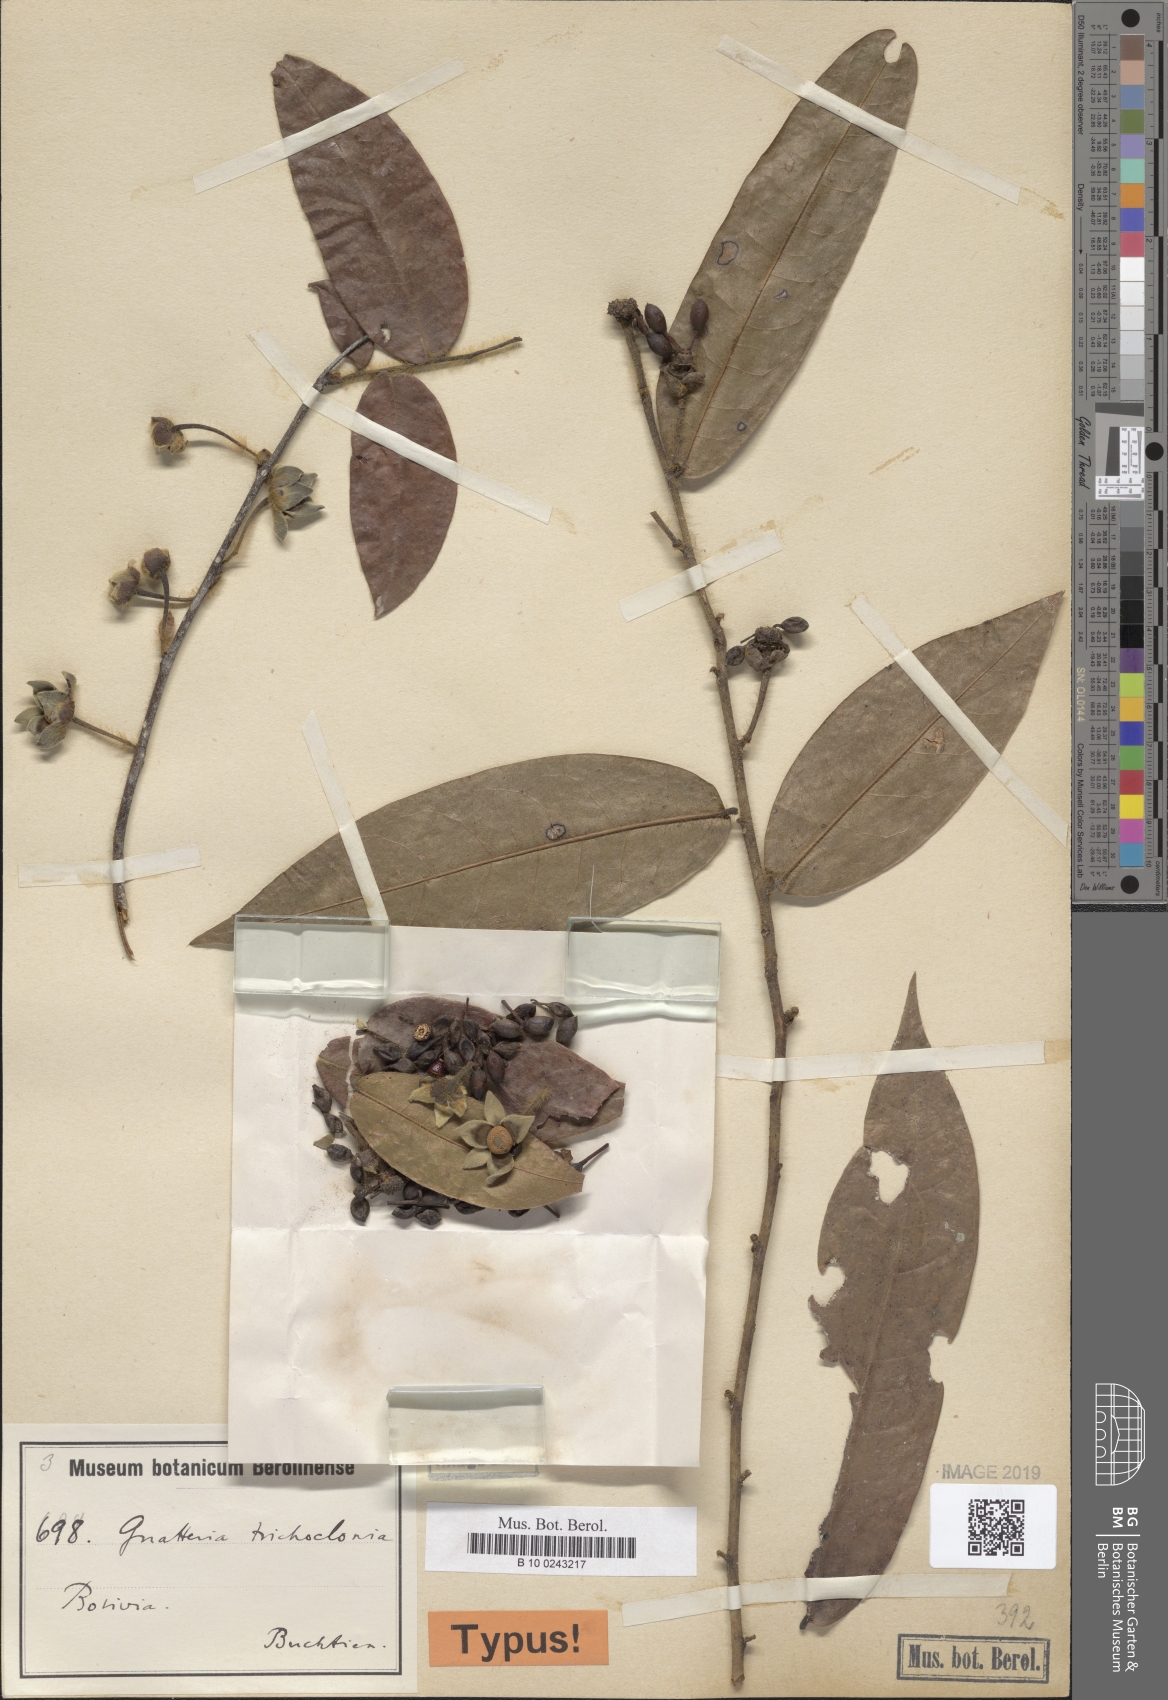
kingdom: Plantae
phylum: Tracheophyta
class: Magnoliopsida
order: Magnoliales
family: Annonaceae
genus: Guatteria
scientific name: Guatteria tomentosa
